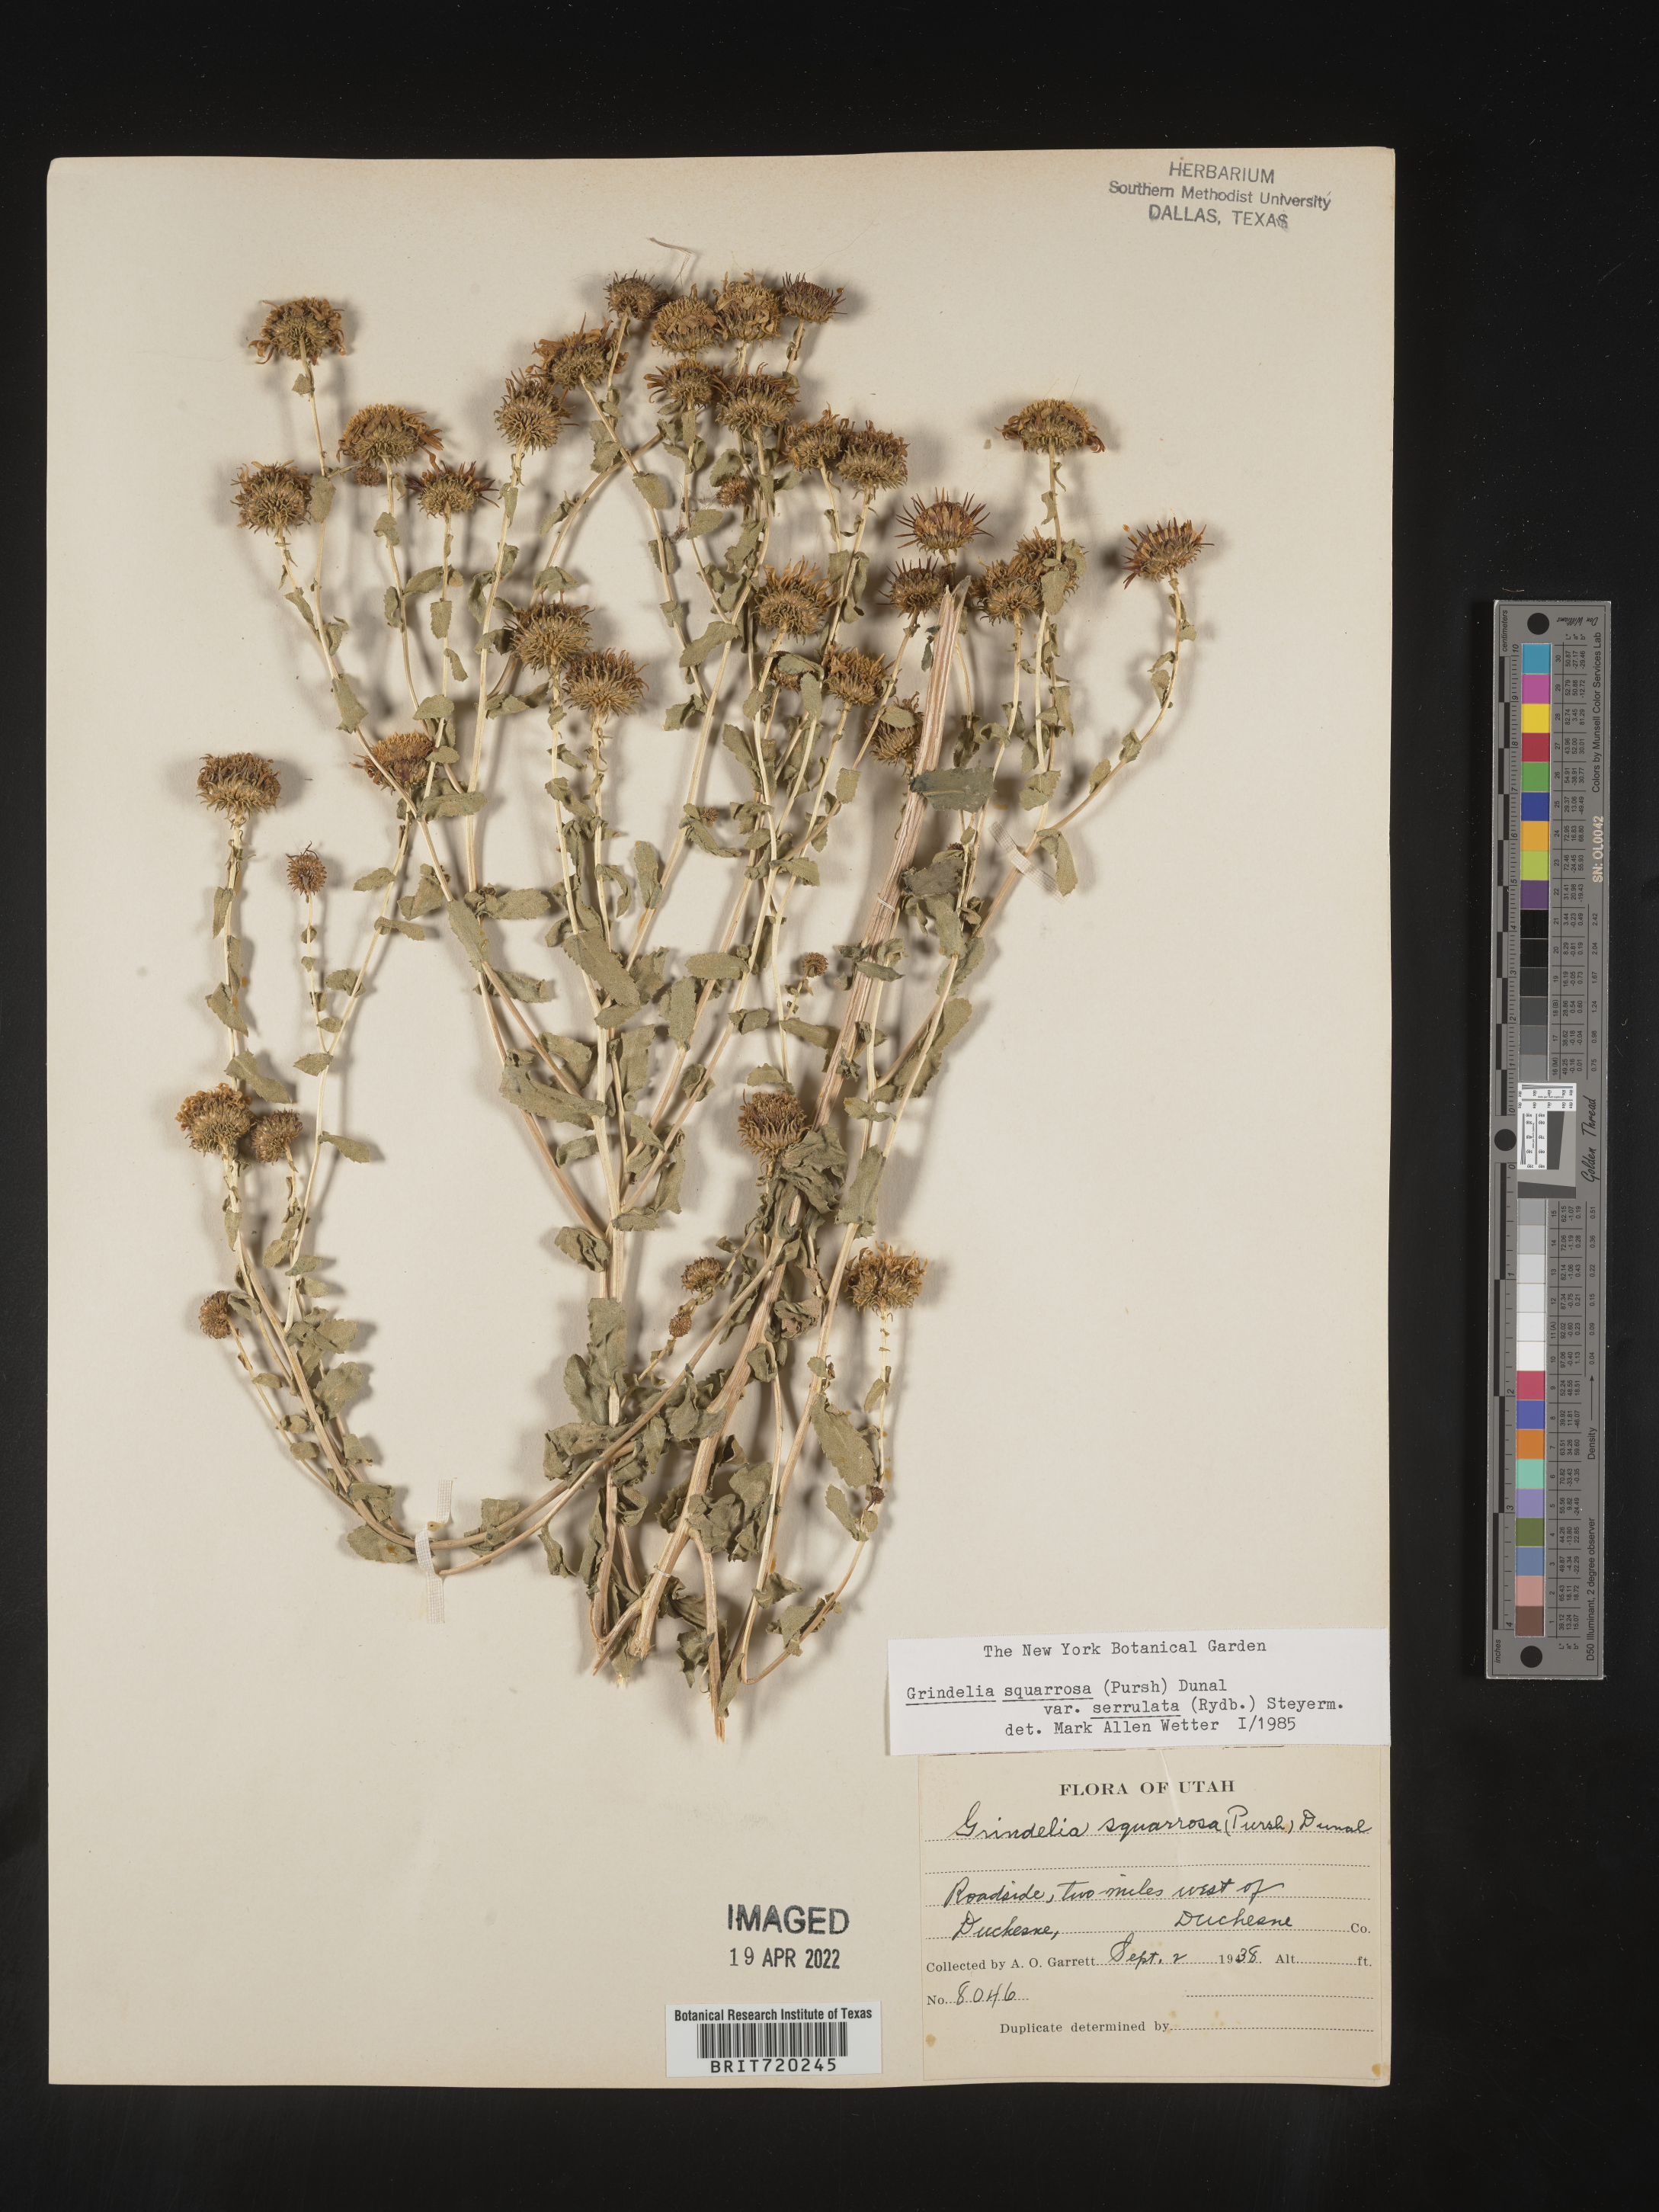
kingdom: Plantae
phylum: Tracheophyta
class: Magnoliopsida
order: Asterales
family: Asteraceae
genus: Grindelia
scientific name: Grindelia squarrosa
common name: Curly-cup gumweed
